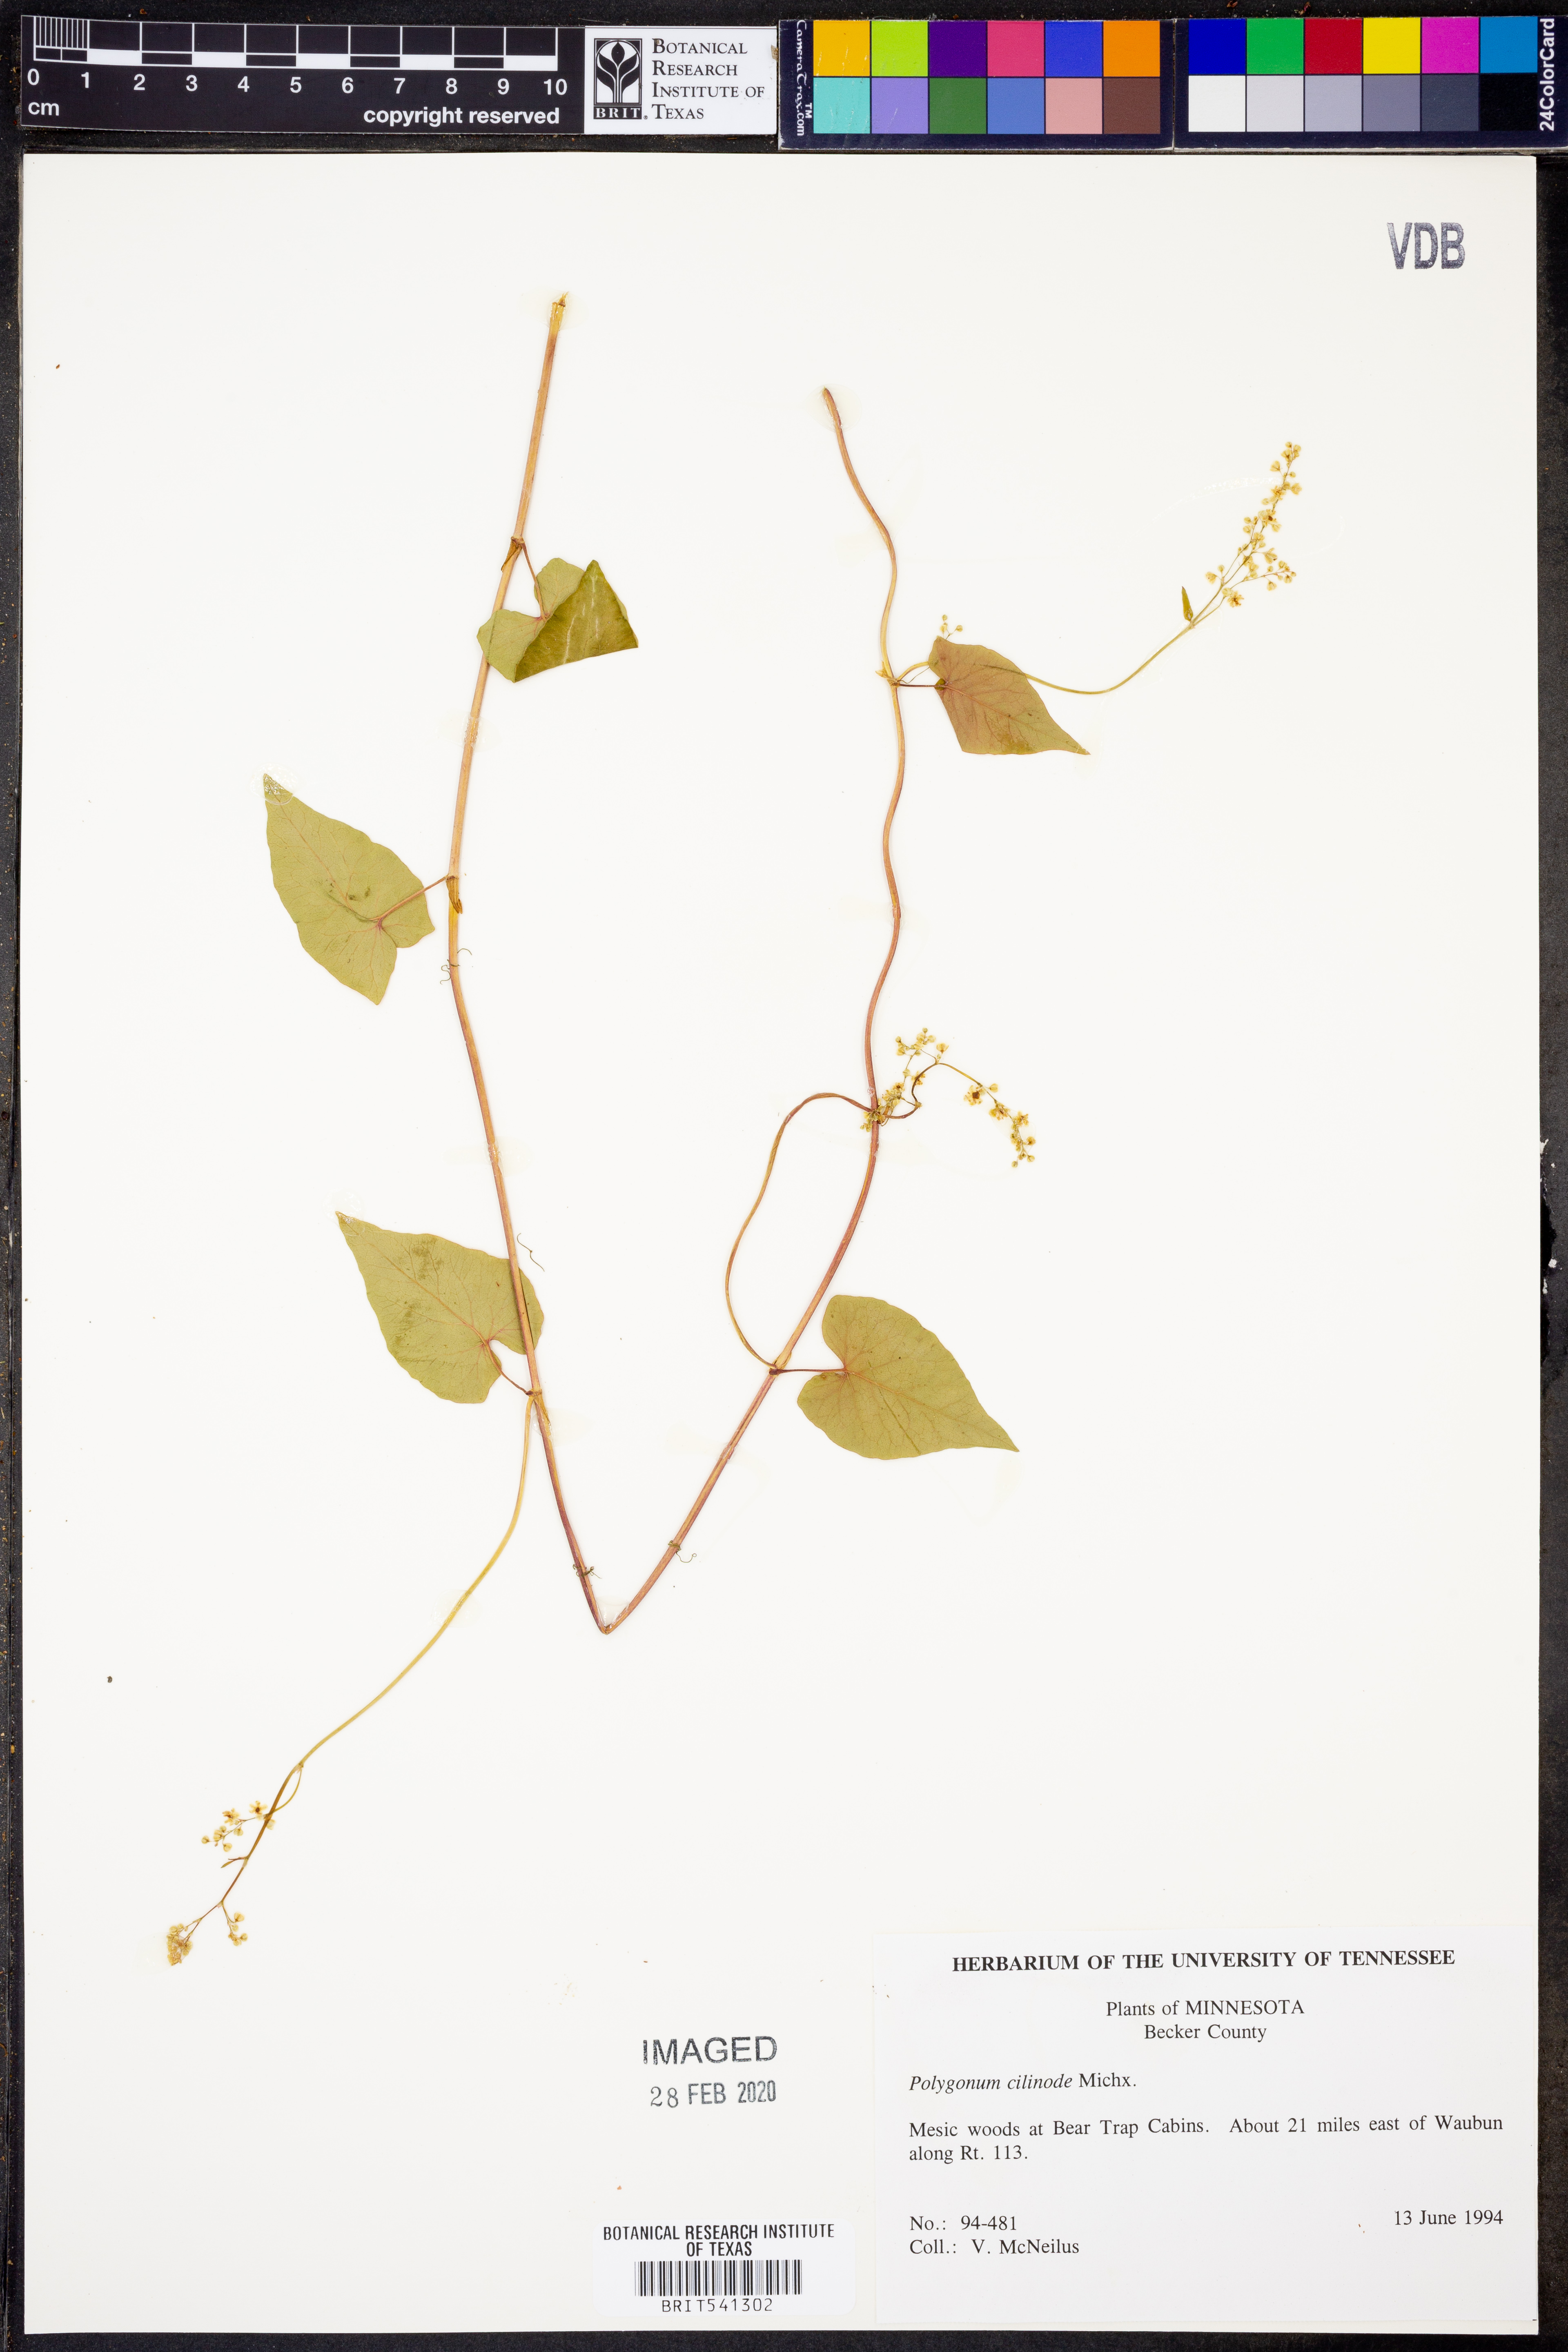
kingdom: Plantae
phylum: Tracheophyta
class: Magnoliopsida
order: Caryophyllales
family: Polygonaceae
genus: Parogonum
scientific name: Parogonum ciliinode
